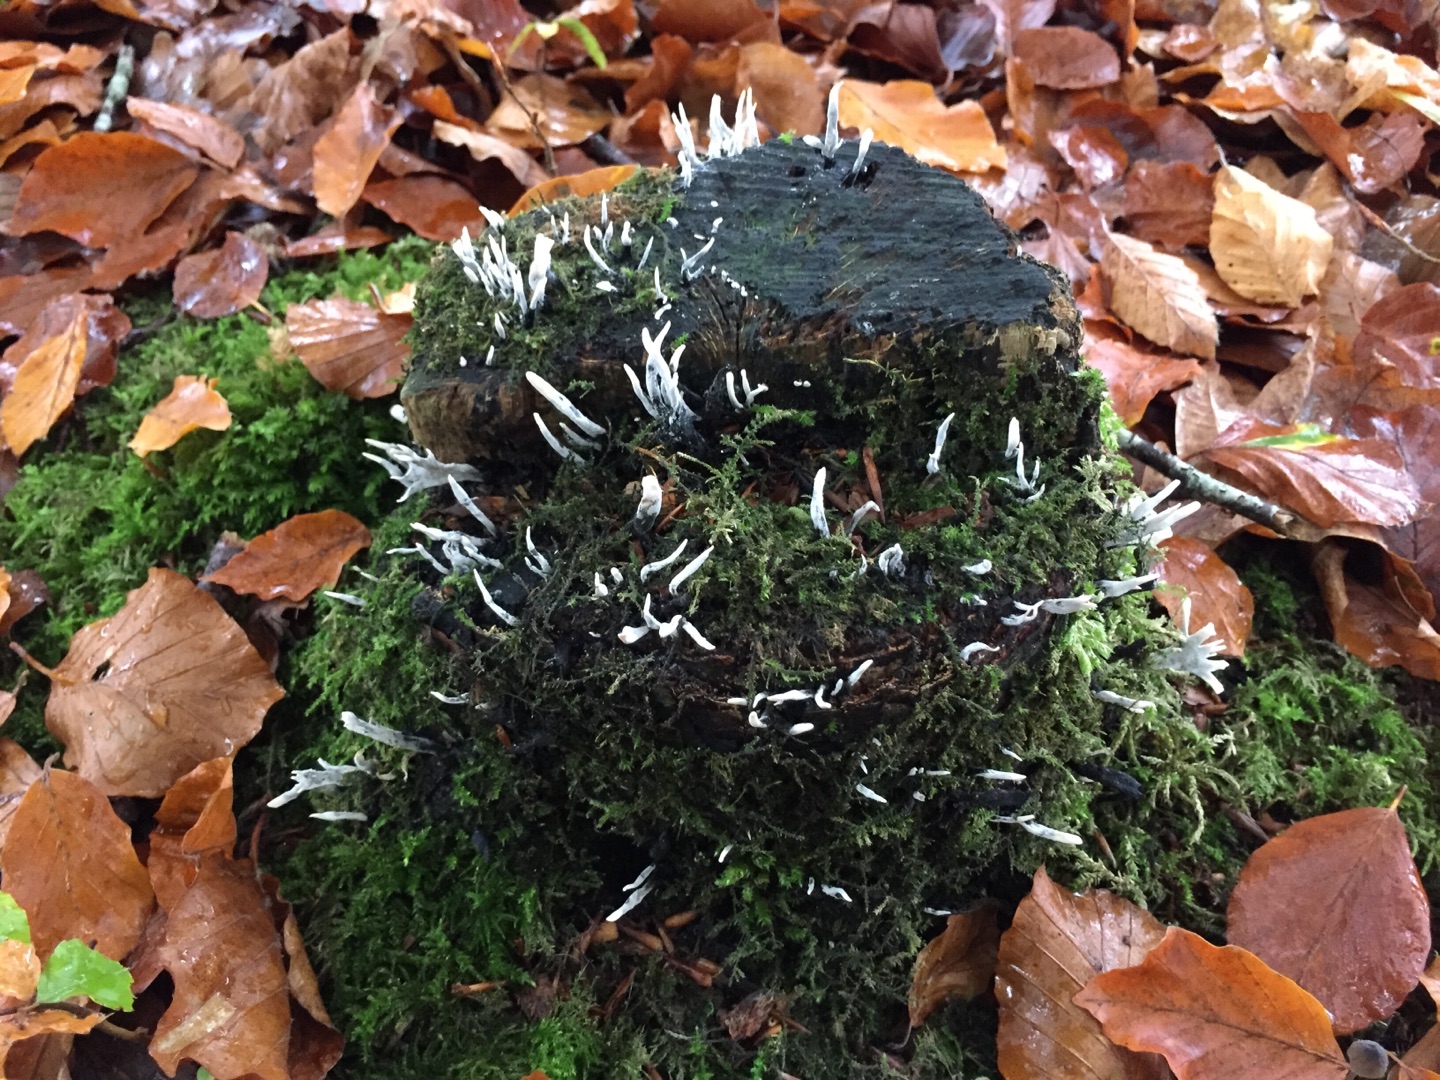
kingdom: Fungi
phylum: Ascomycota
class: Sordariomycetes
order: Xylariales
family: Xylariaceae
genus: Xylaria
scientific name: Xylaria hypoxylon
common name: Grenet stødsvamp
